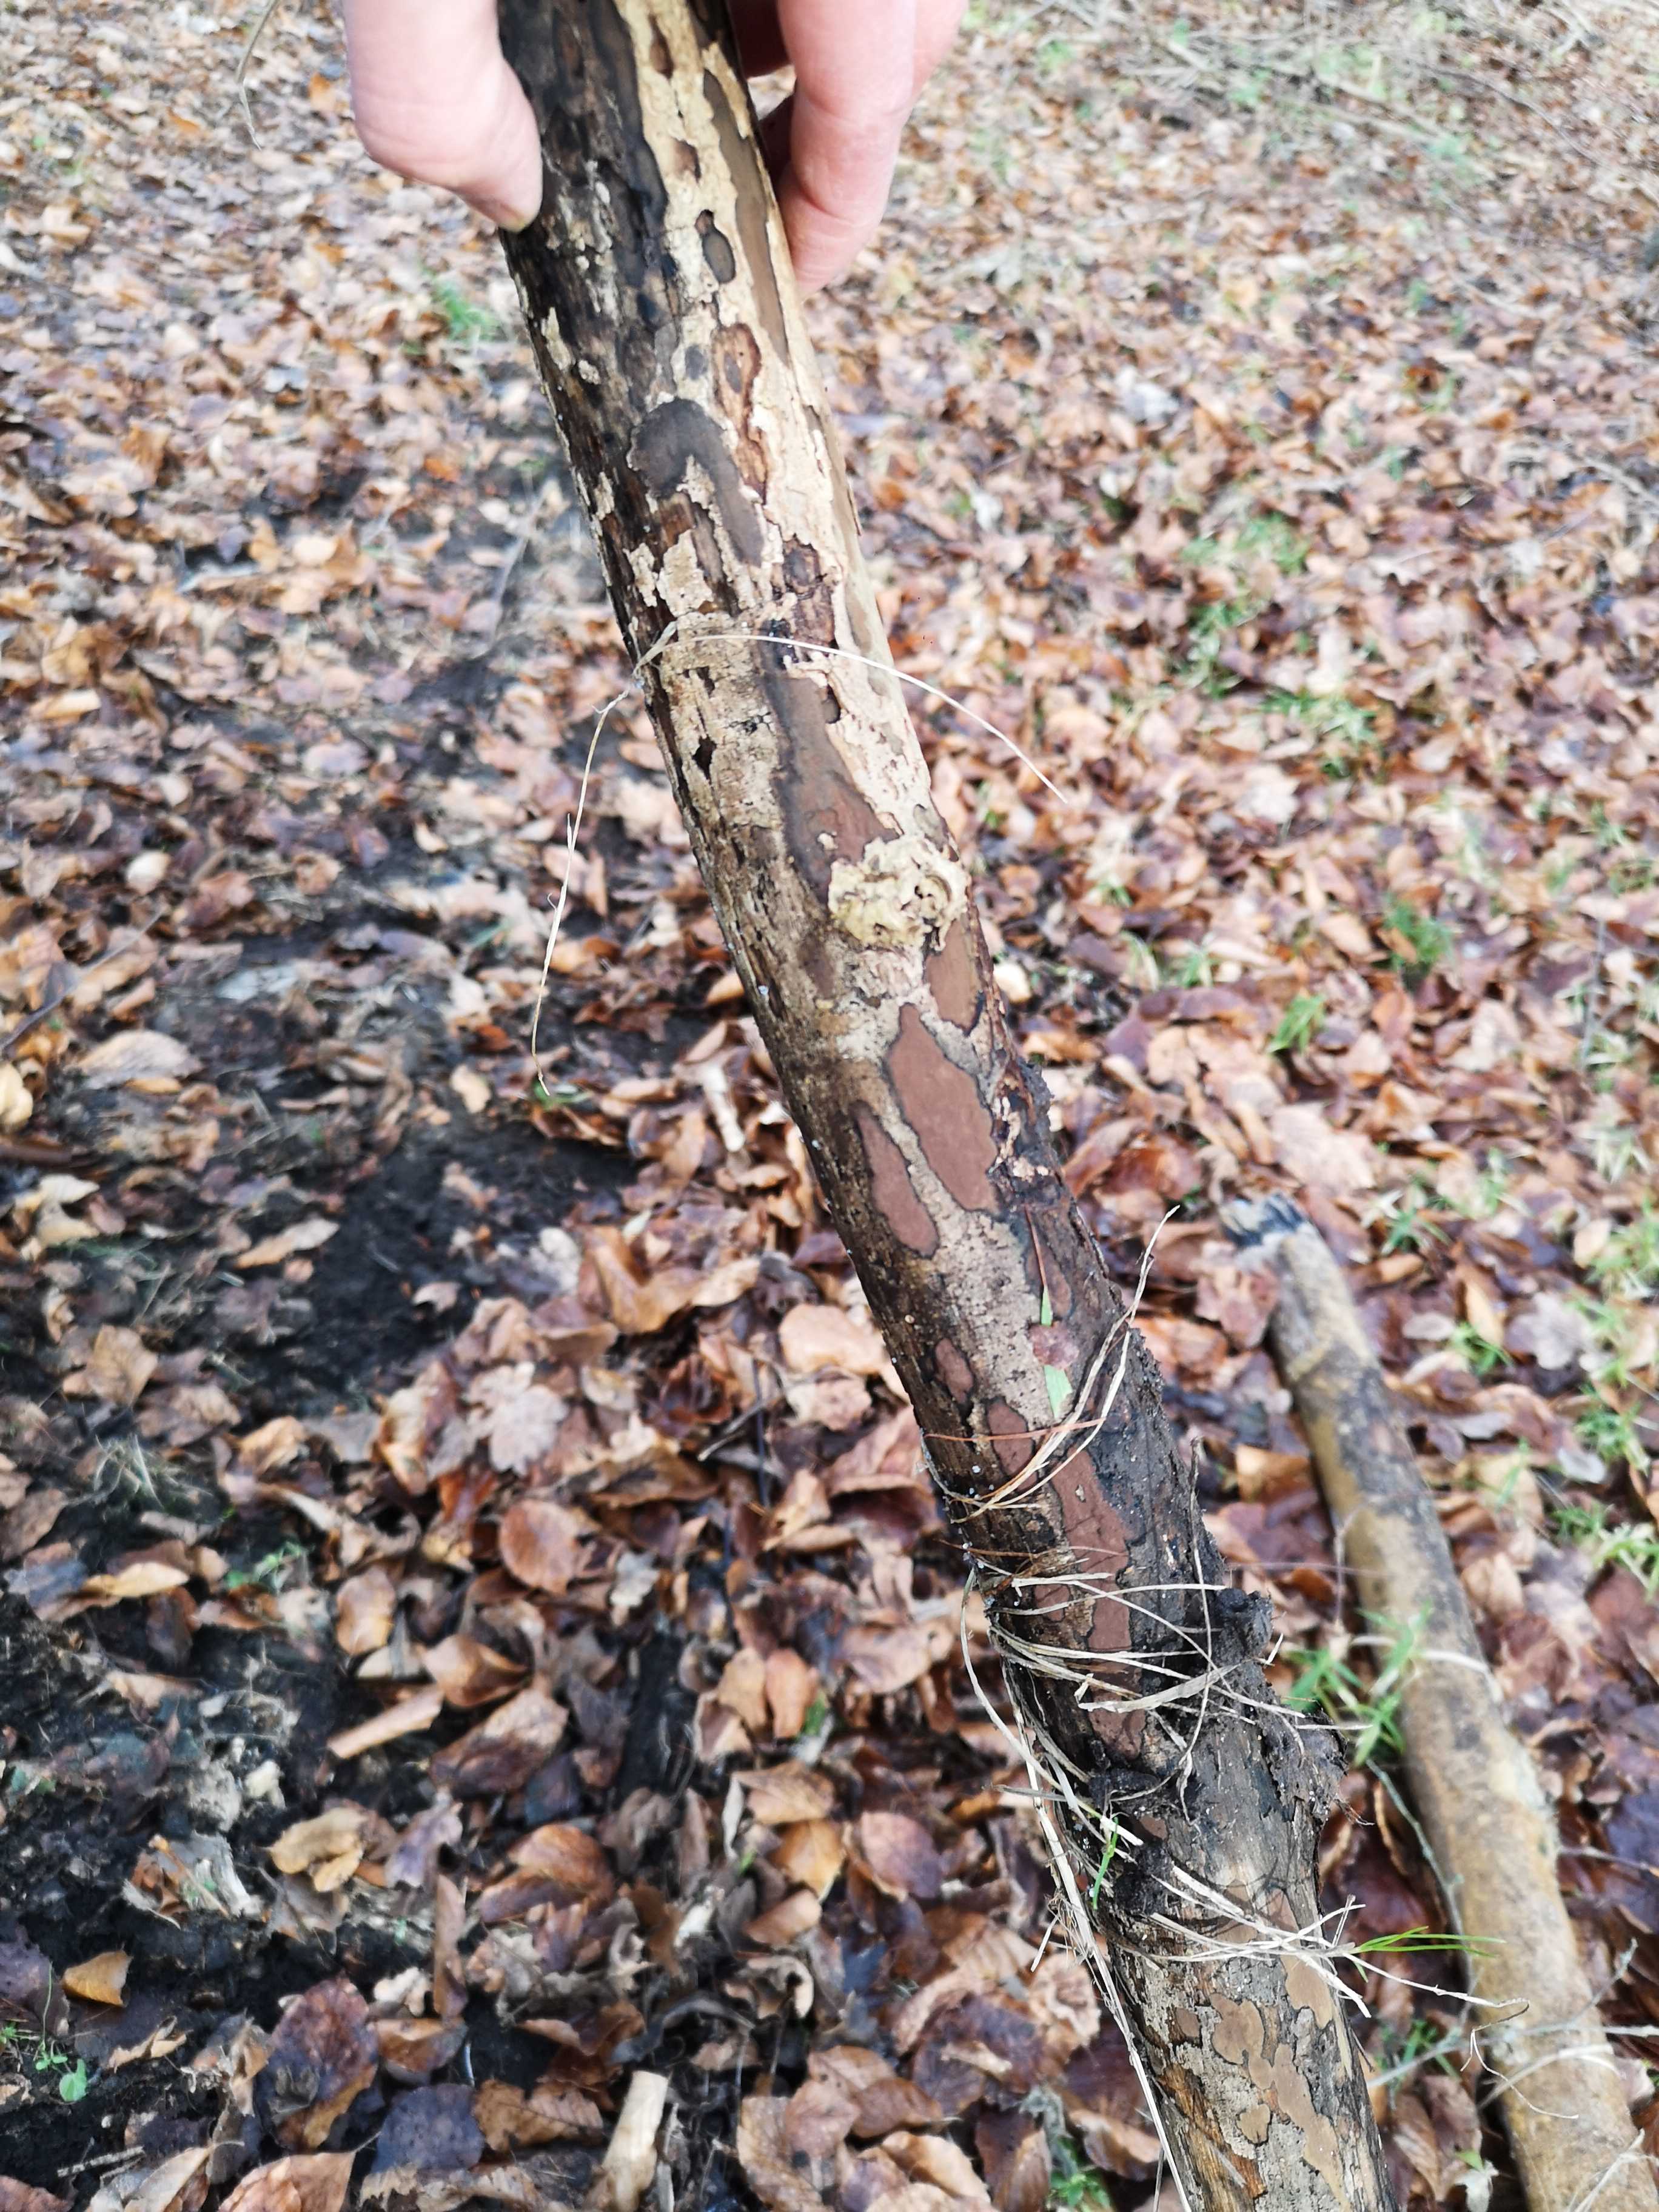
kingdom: Fungi
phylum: Ascomycota
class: Sordariomycetes
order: Xylariales
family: Hypoxylaceae
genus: Hypoxylon
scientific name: Hypoxylon petriniae
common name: nedsænket kulbær
